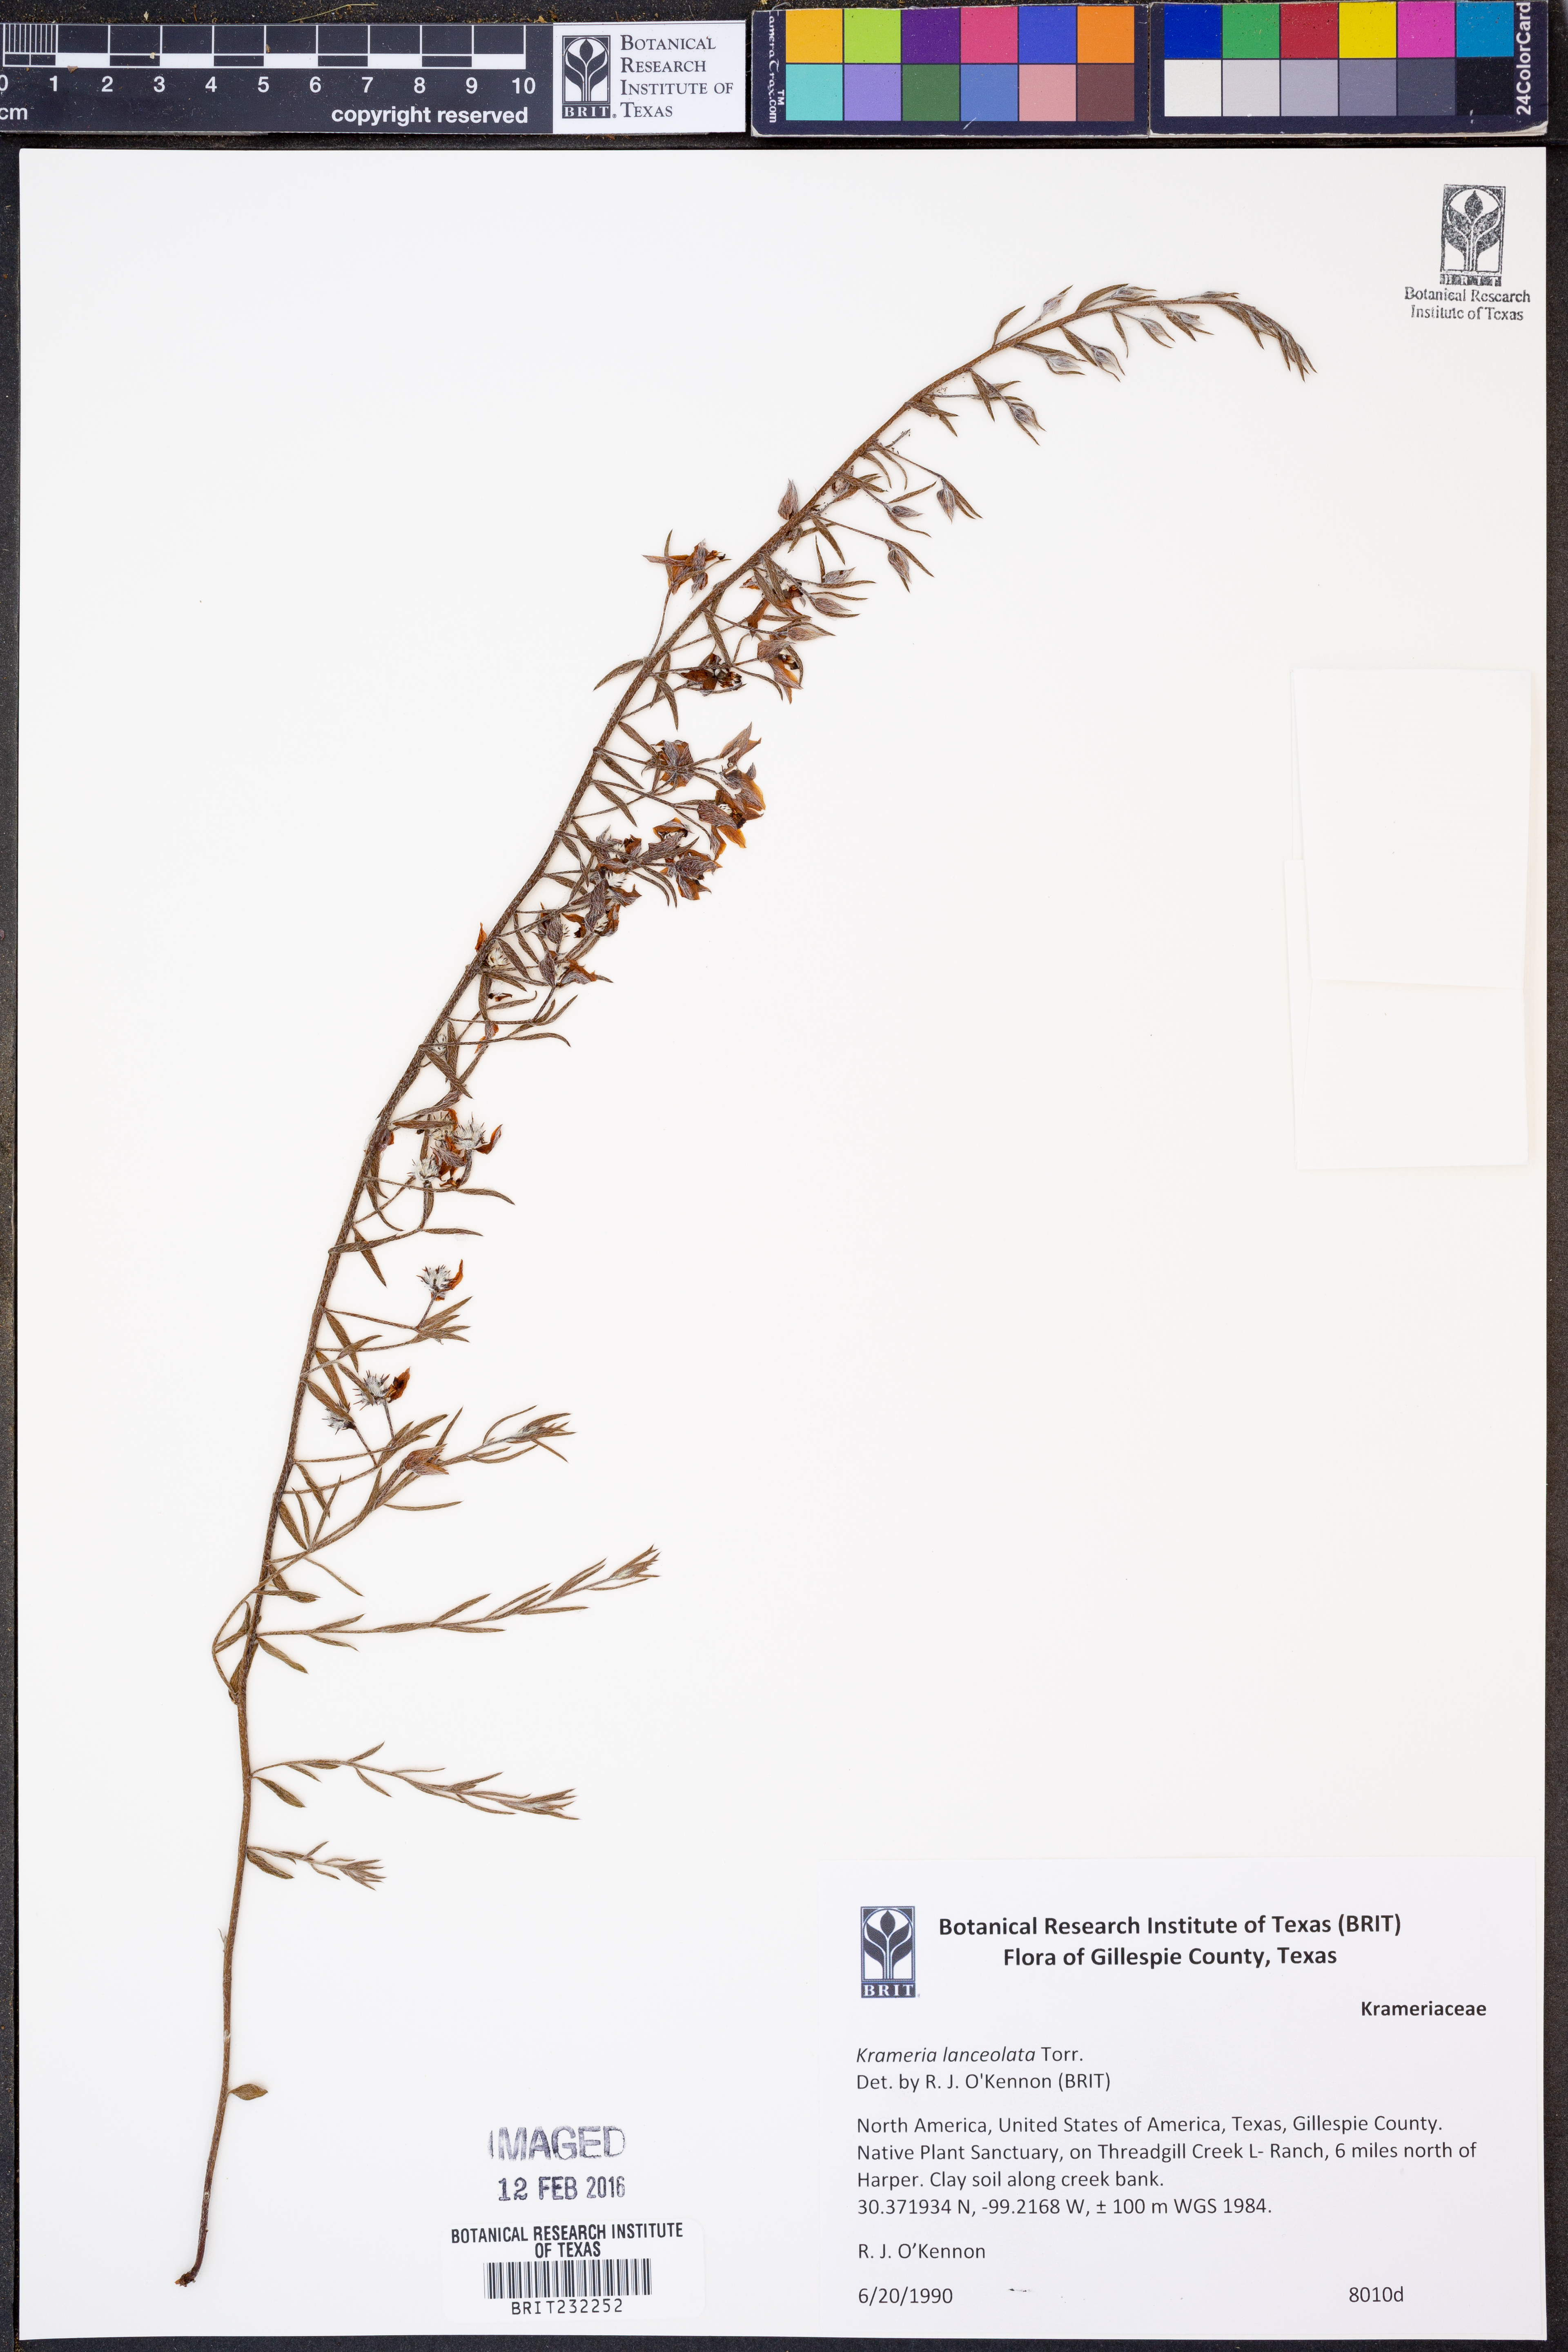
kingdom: Plantae
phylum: Tracheophyta
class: Magnoliopsida
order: Zygophyllales
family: Krameriaceae
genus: Krameria
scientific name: Krameria lanceolata
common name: Ratany
